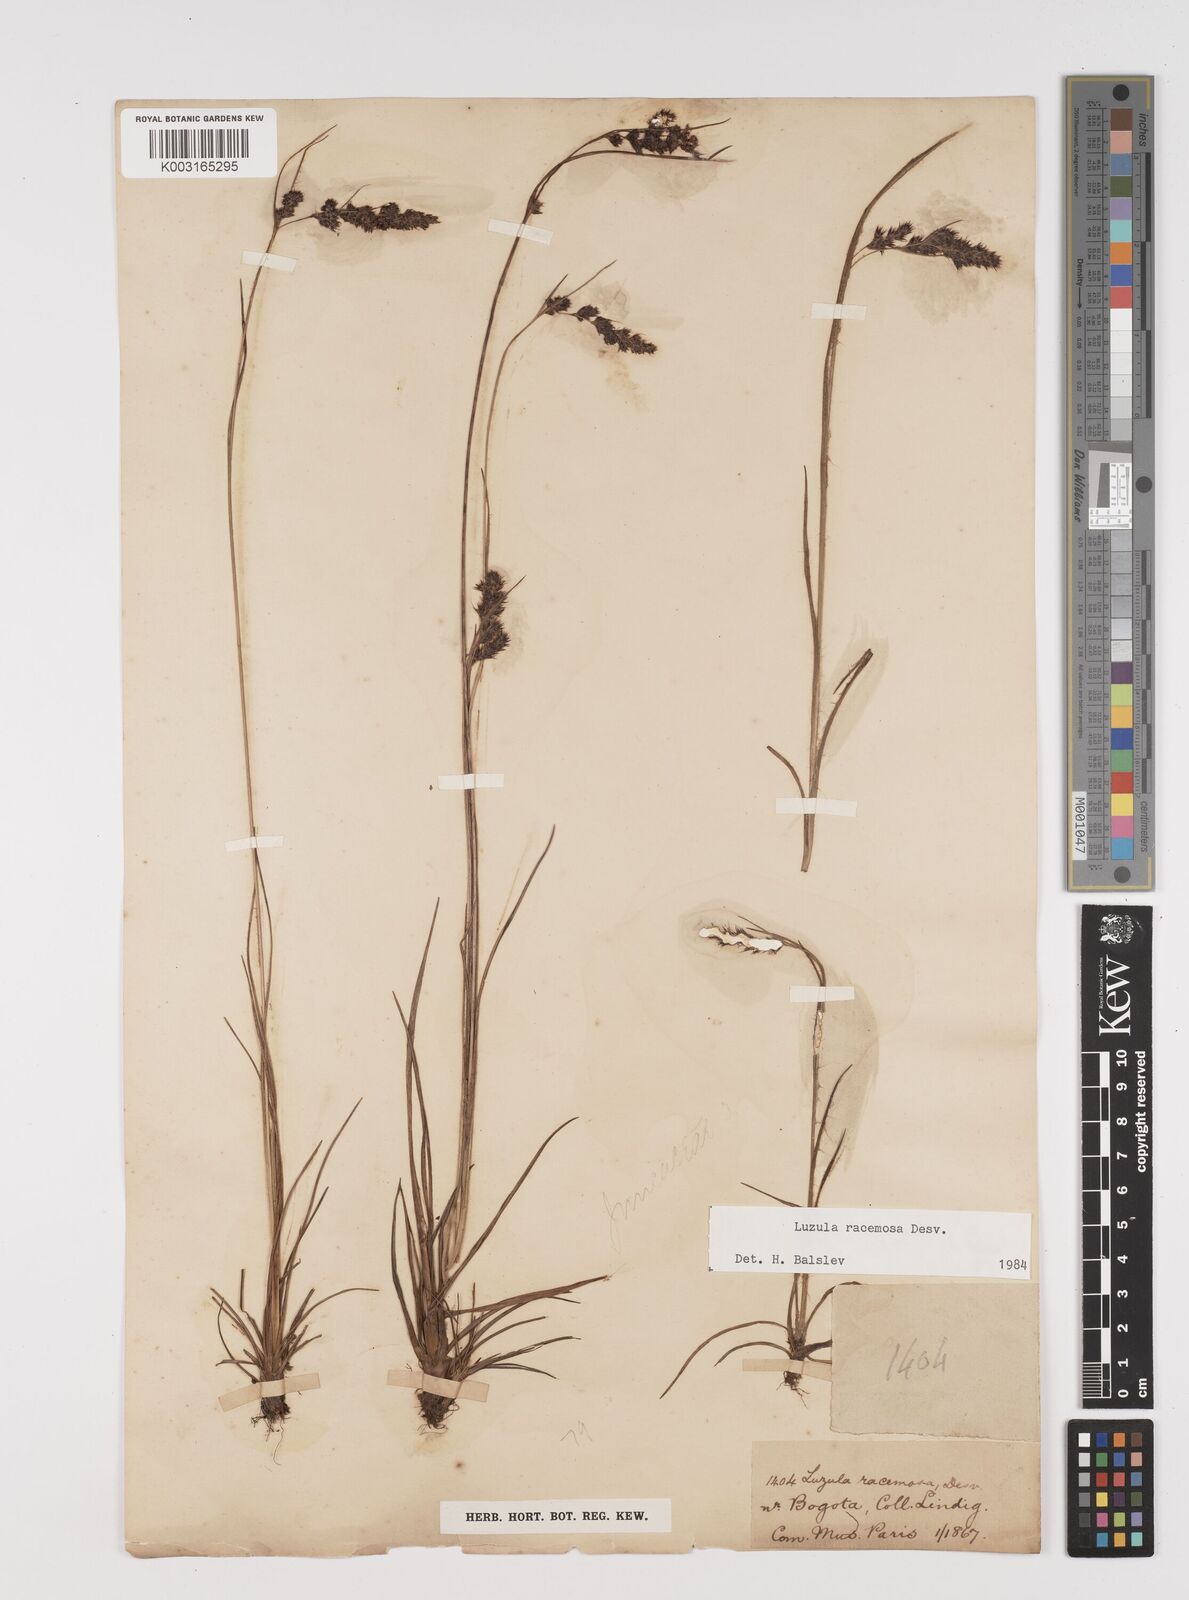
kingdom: Plantae
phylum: Tracheophyta
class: Liliopsida
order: Poales
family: Juncaceae
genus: Luzula
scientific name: Luzula racemosa
